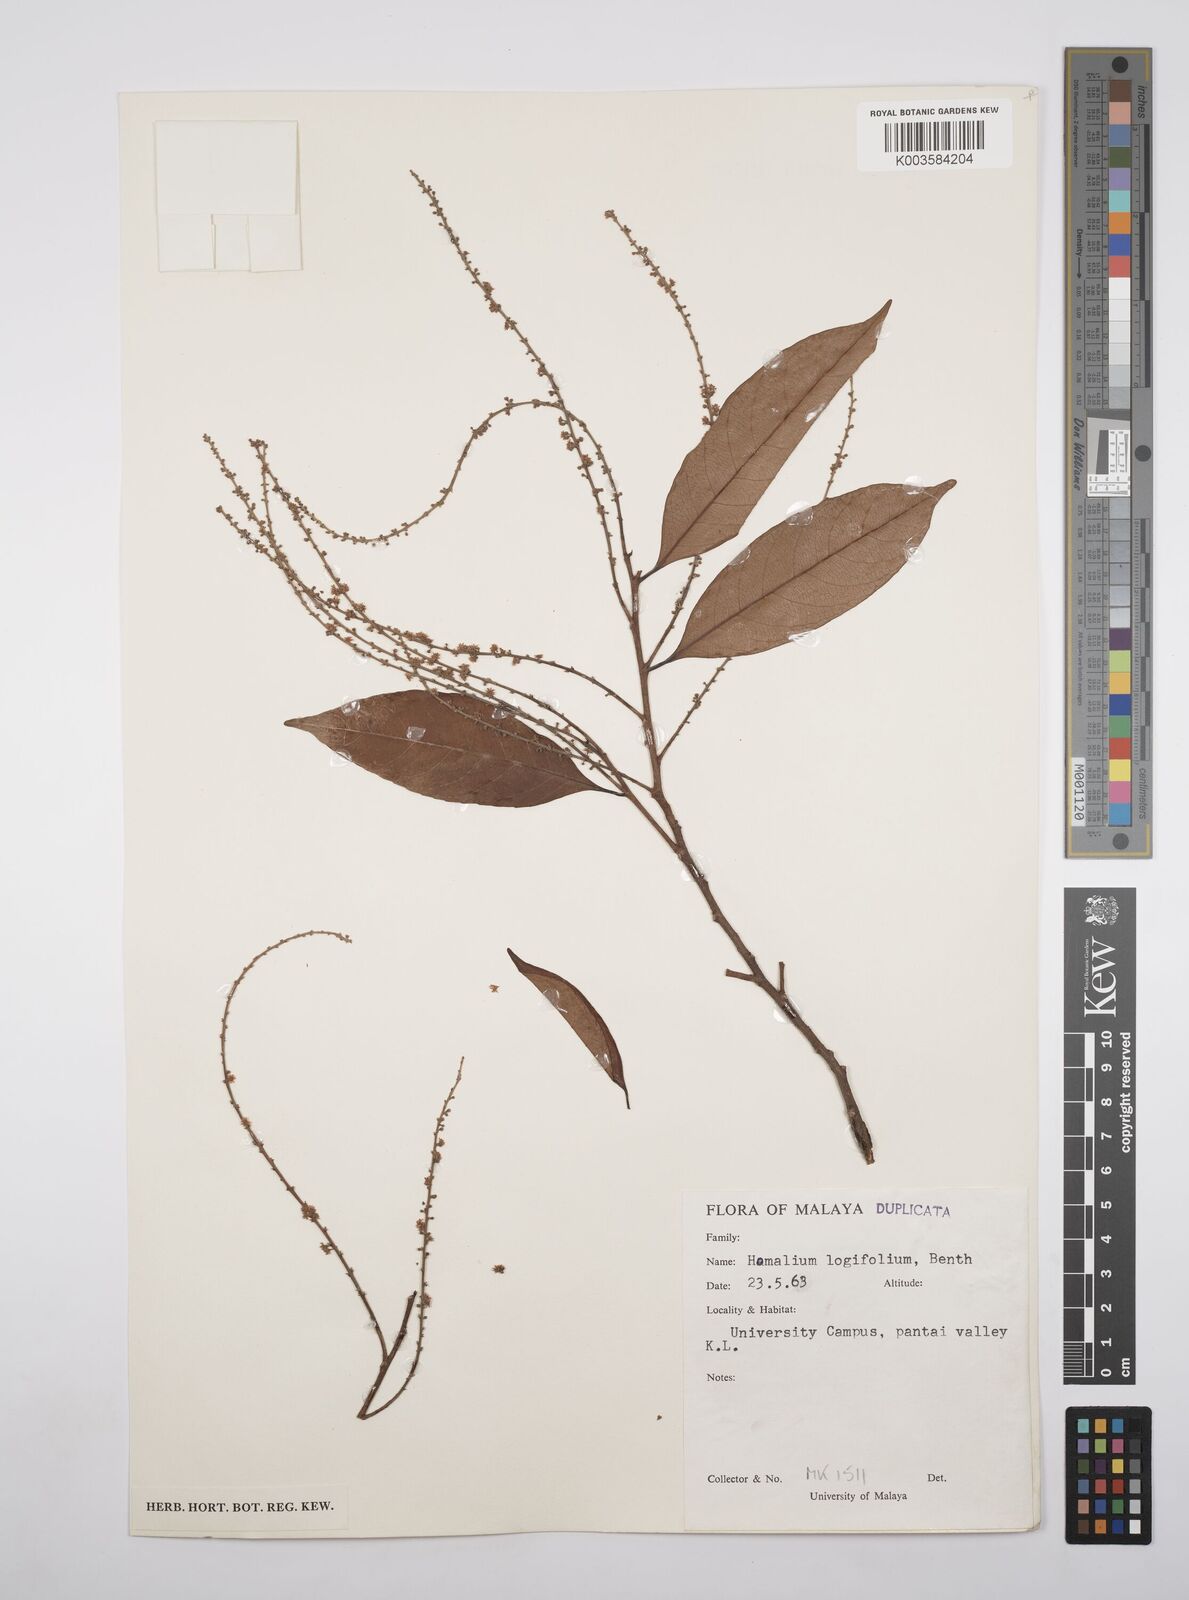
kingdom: Plantae
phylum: Tracheophyta
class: Magnoliopsida
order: Malpighiales
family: Salicaceae
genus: Homalium
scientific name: Homalium longifolium
